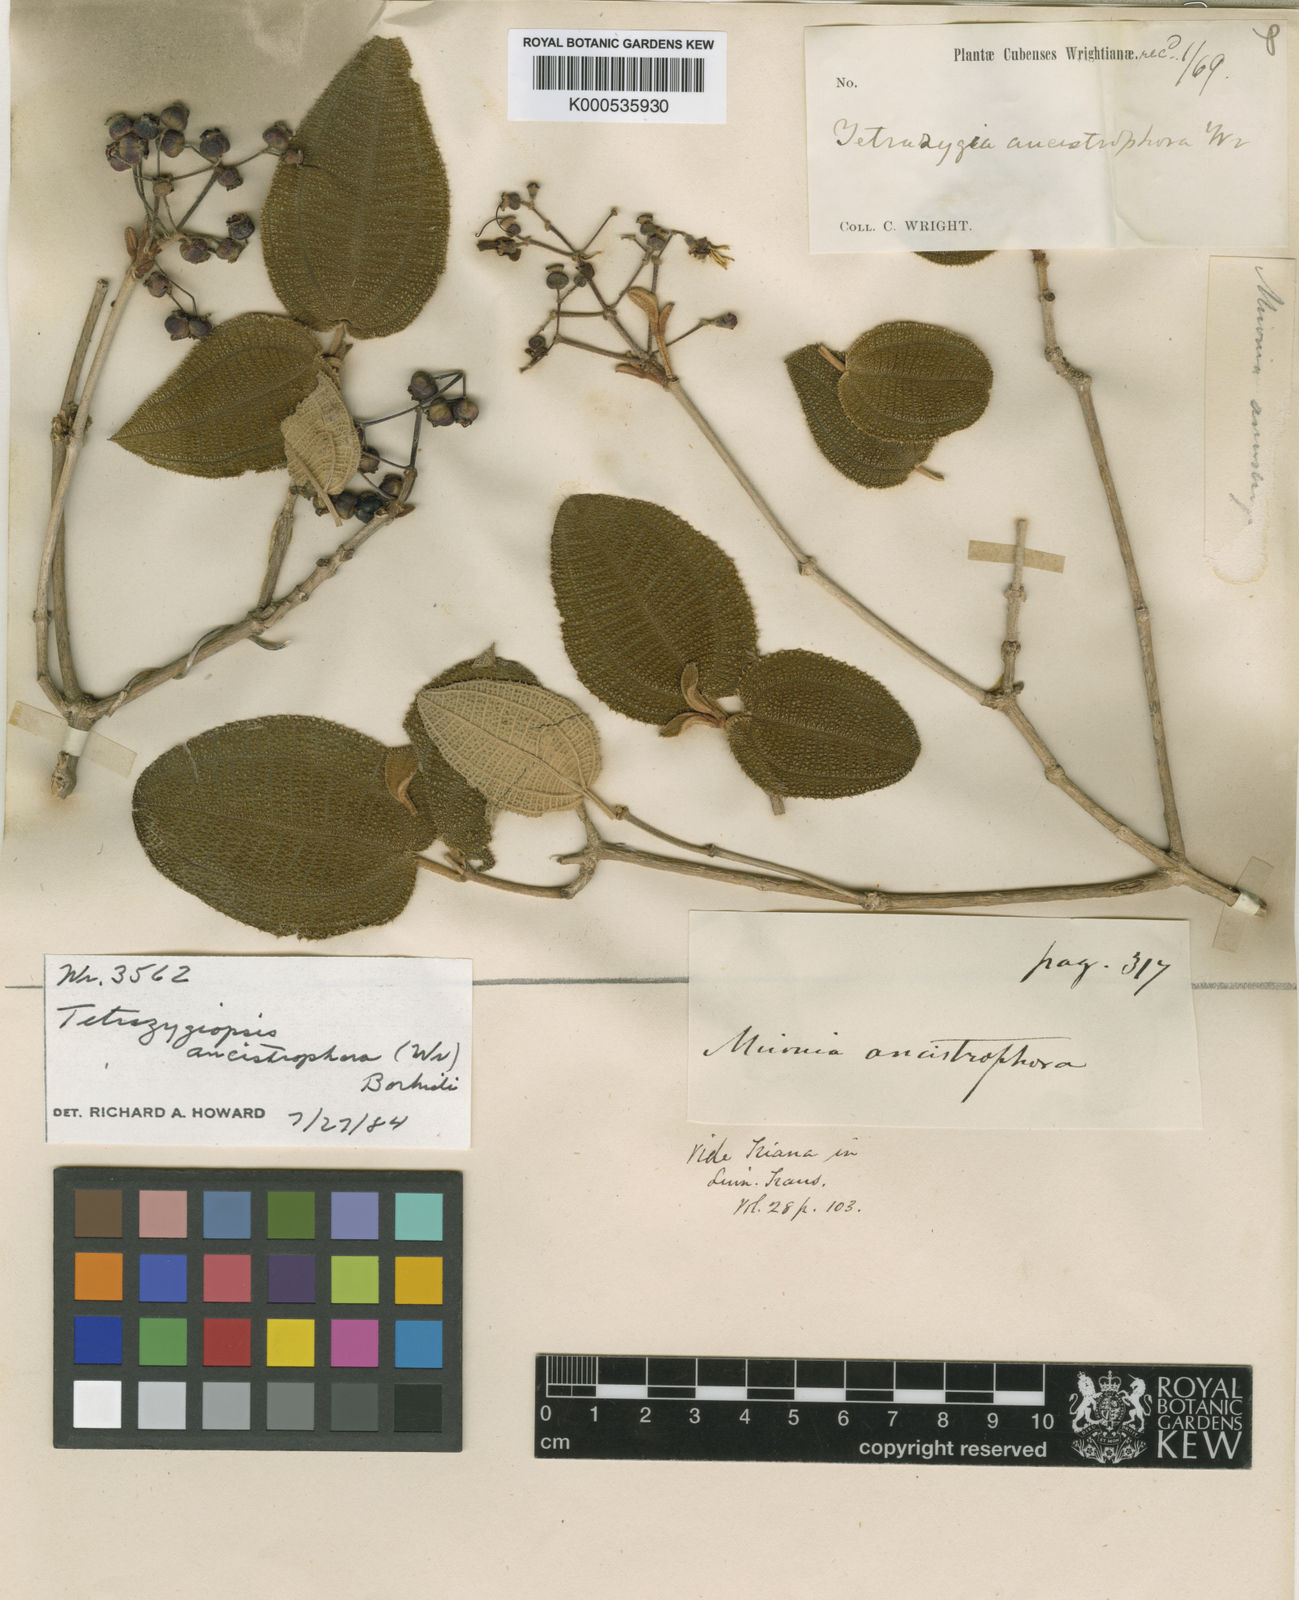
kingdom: Plantae
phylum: Tracheophyta
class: Magnoliopsida
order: Myrtales
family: Melastomataceae
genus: Miconia
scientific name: Miconia ancistrophora
